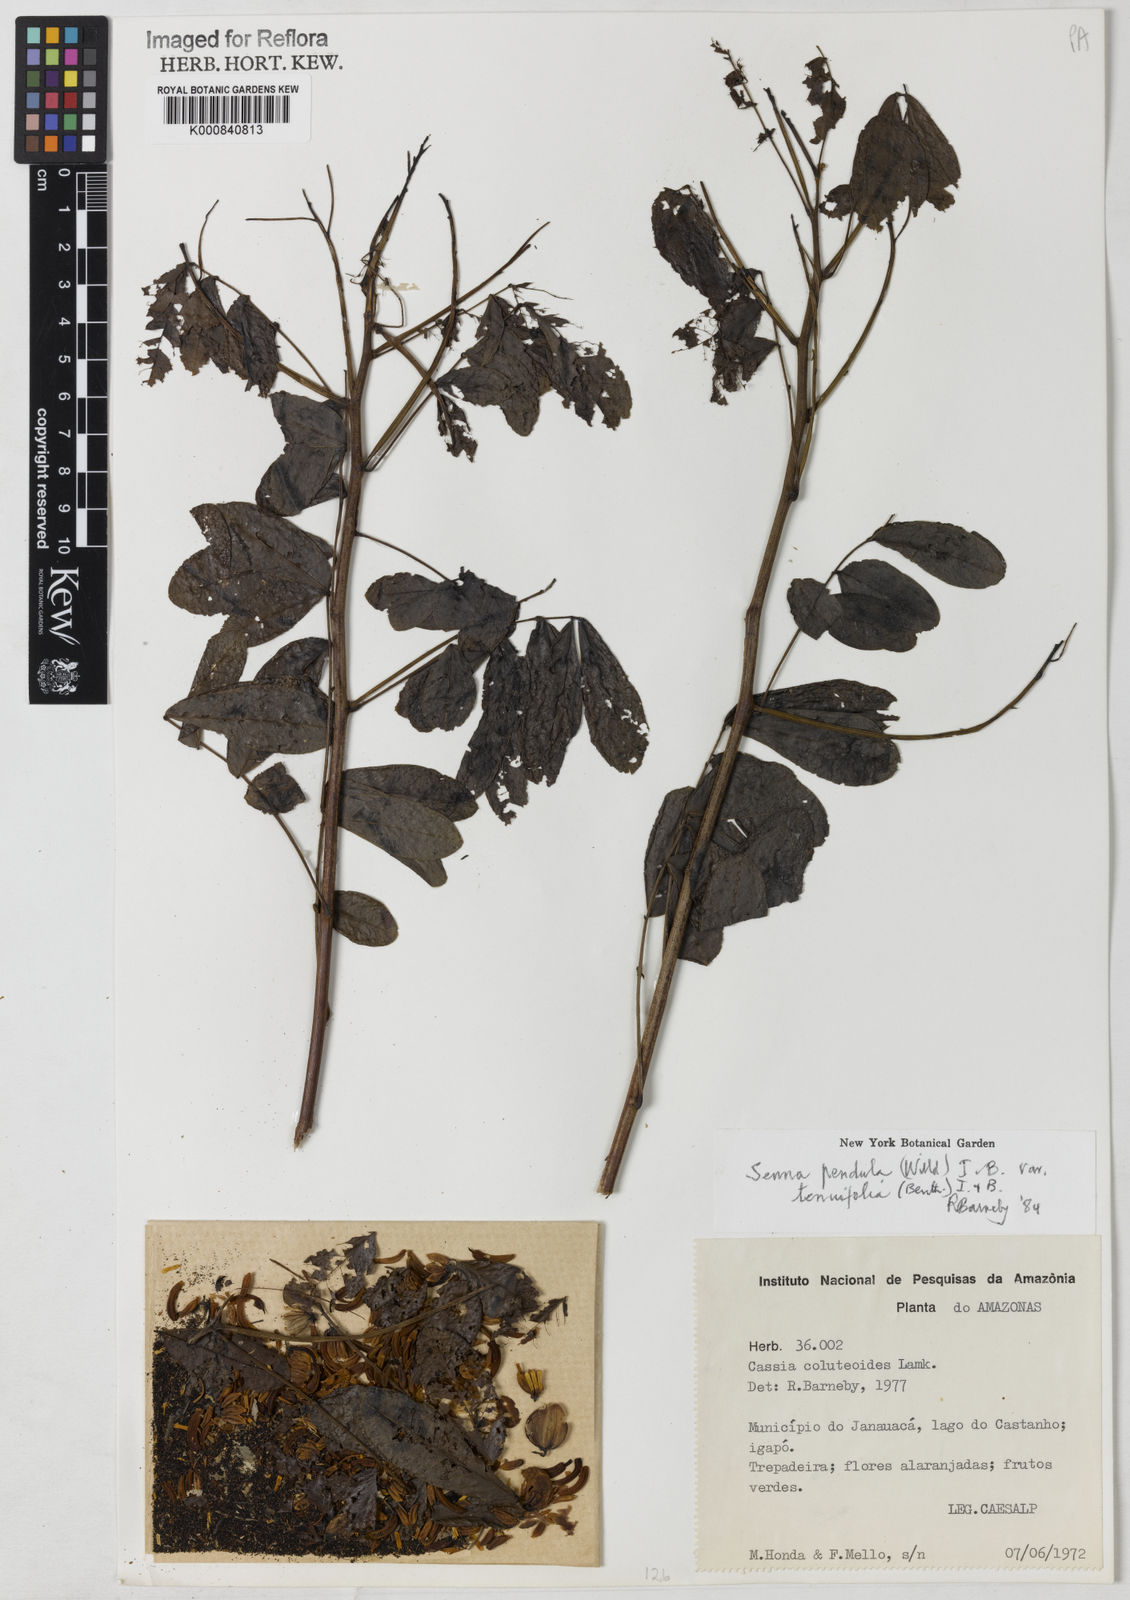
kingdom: Plantae
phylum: Tracheophyta
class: Magnoliopsida
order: Fabales
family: Fabaceae
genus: Senna
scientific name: Senna pendula
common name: Easter cassia
